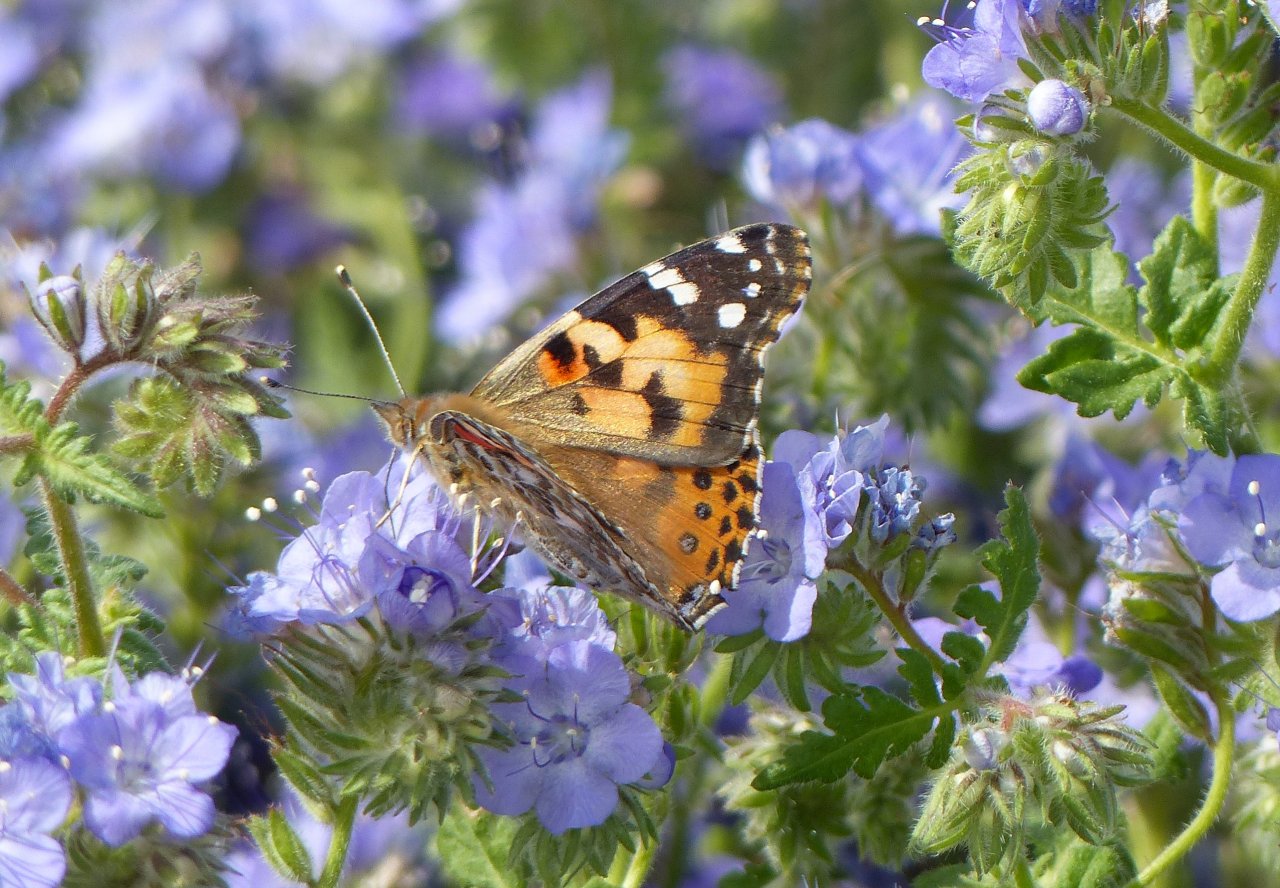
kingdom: Animalia
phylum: Arthropoda
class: Insecta
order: Lepidoptera
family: Nymphalidae
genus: Vanessa
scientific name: Vanessa cardui
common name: Painted Lady
